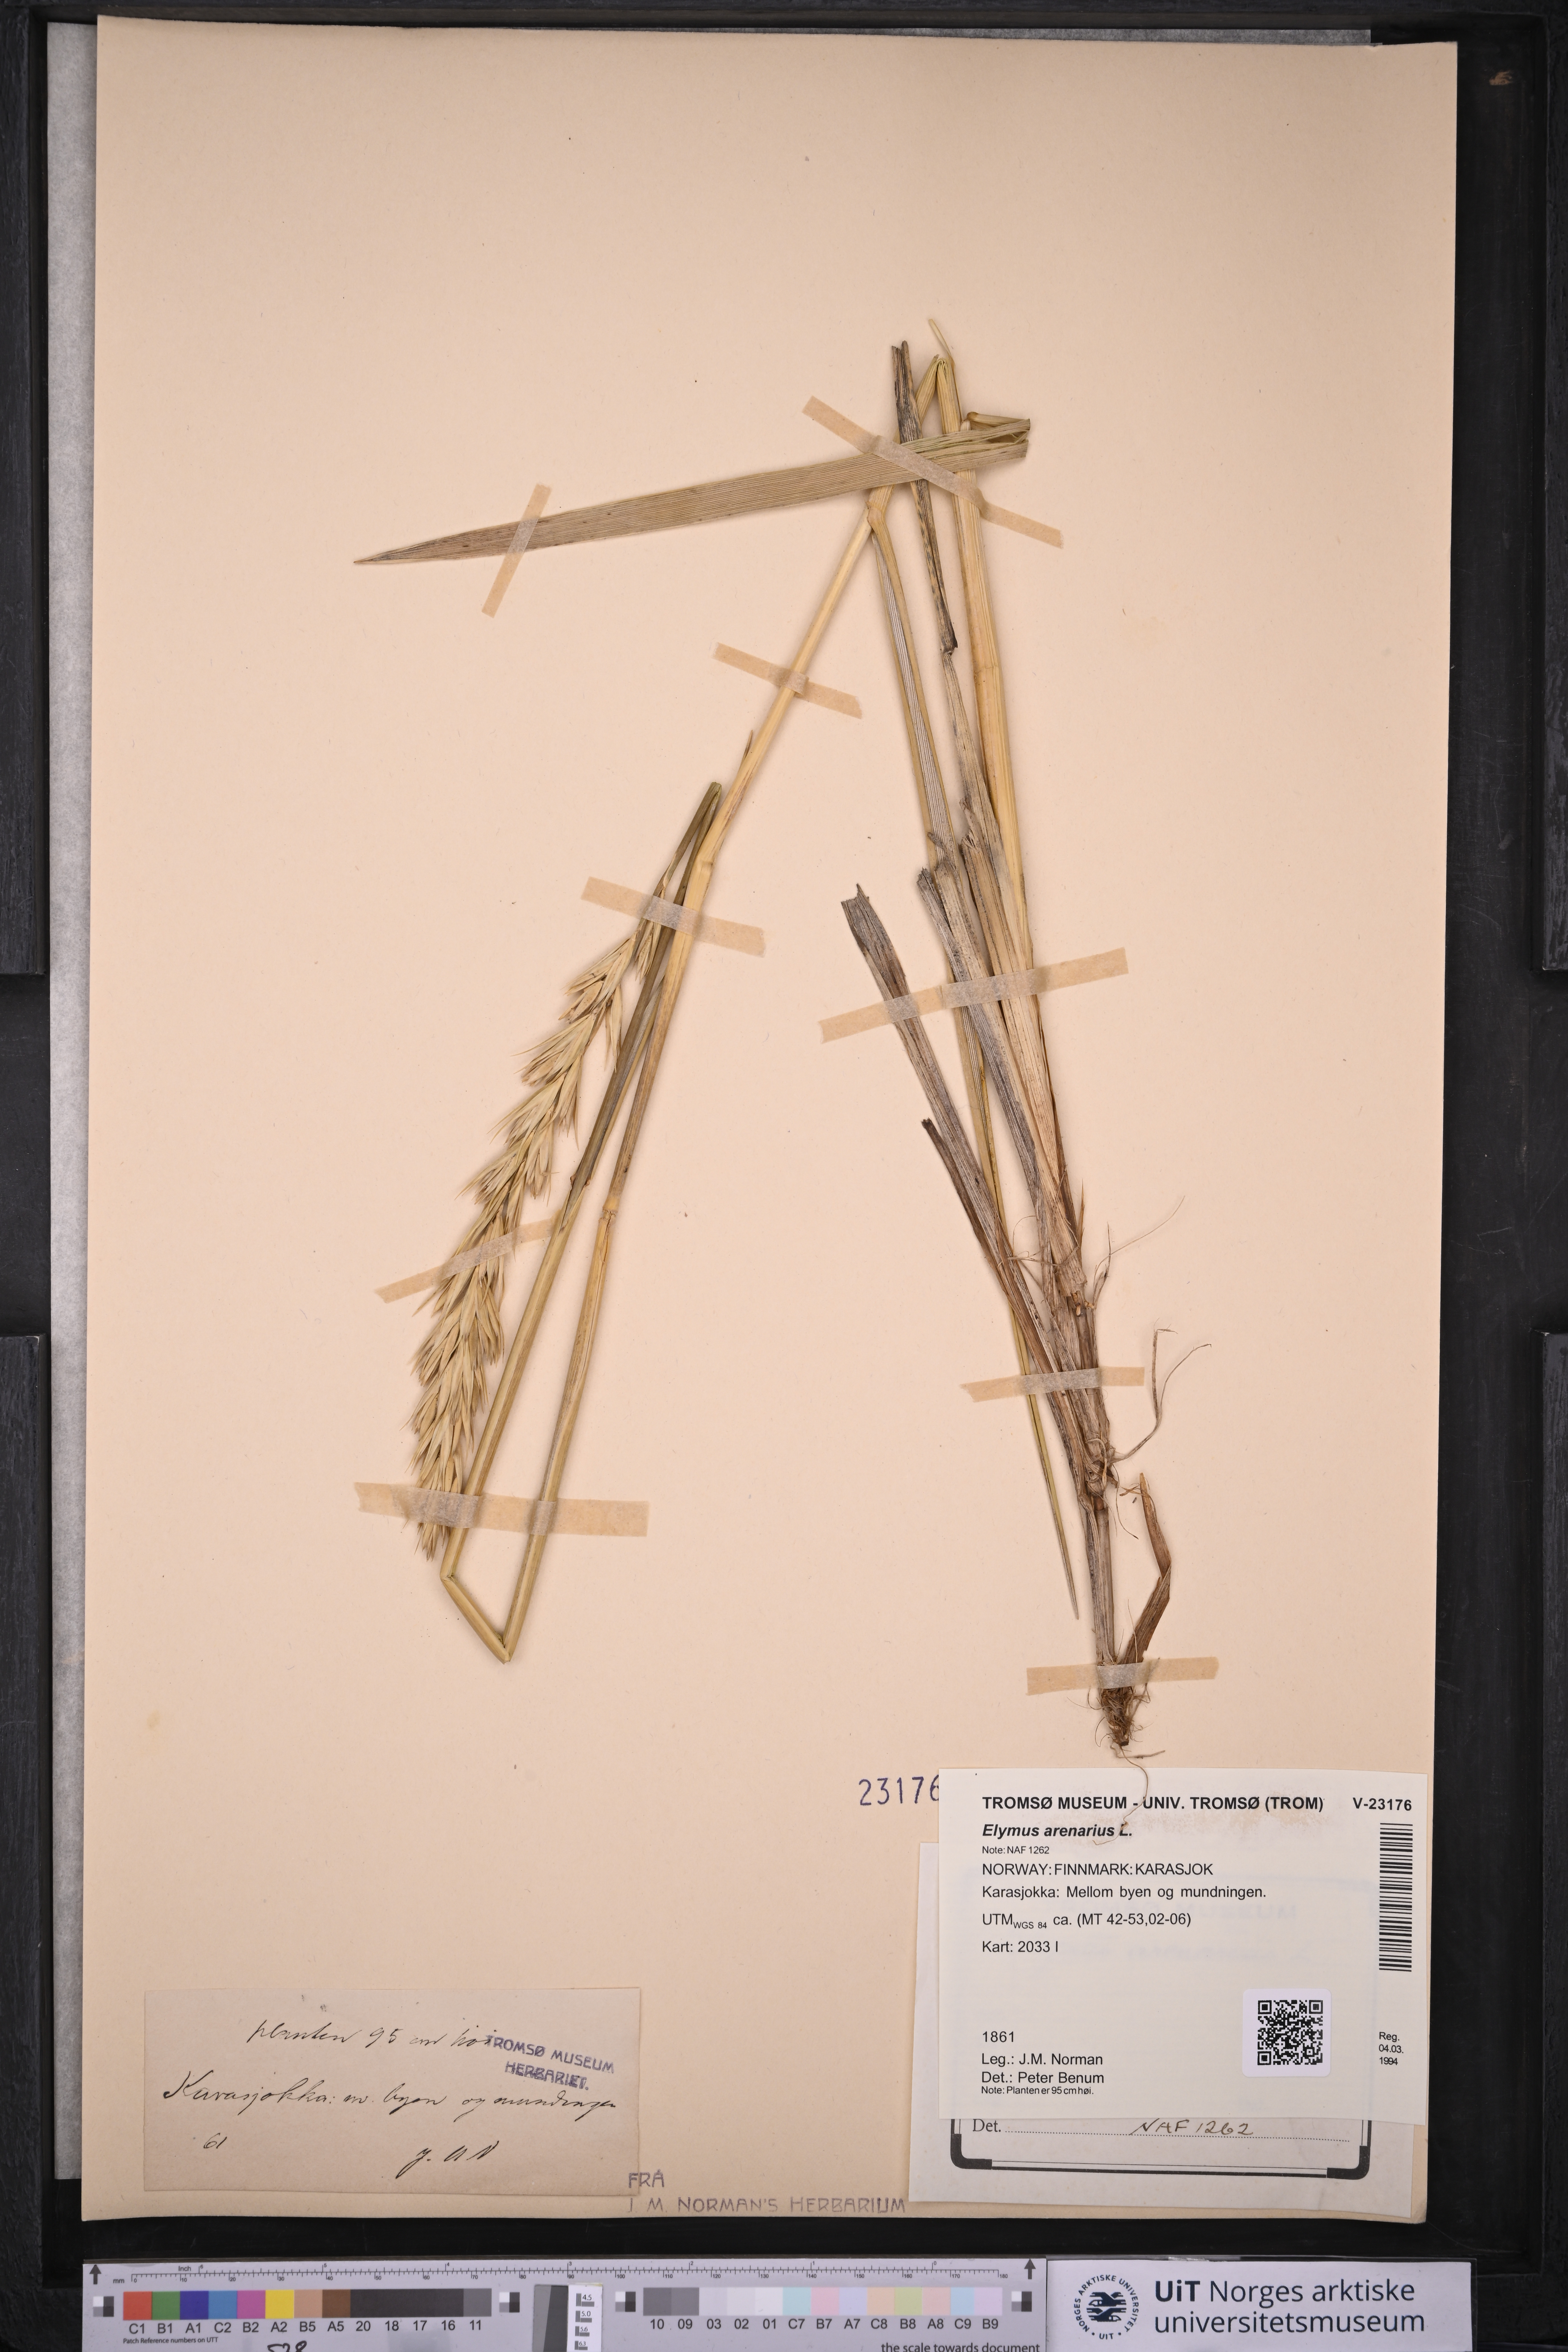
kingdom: Plantae
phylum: Tracheophyta
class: Liliopsida
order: Poales
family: Poaceae
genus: Leymus
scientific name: Leymus arenarius
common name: Lyme-grass
